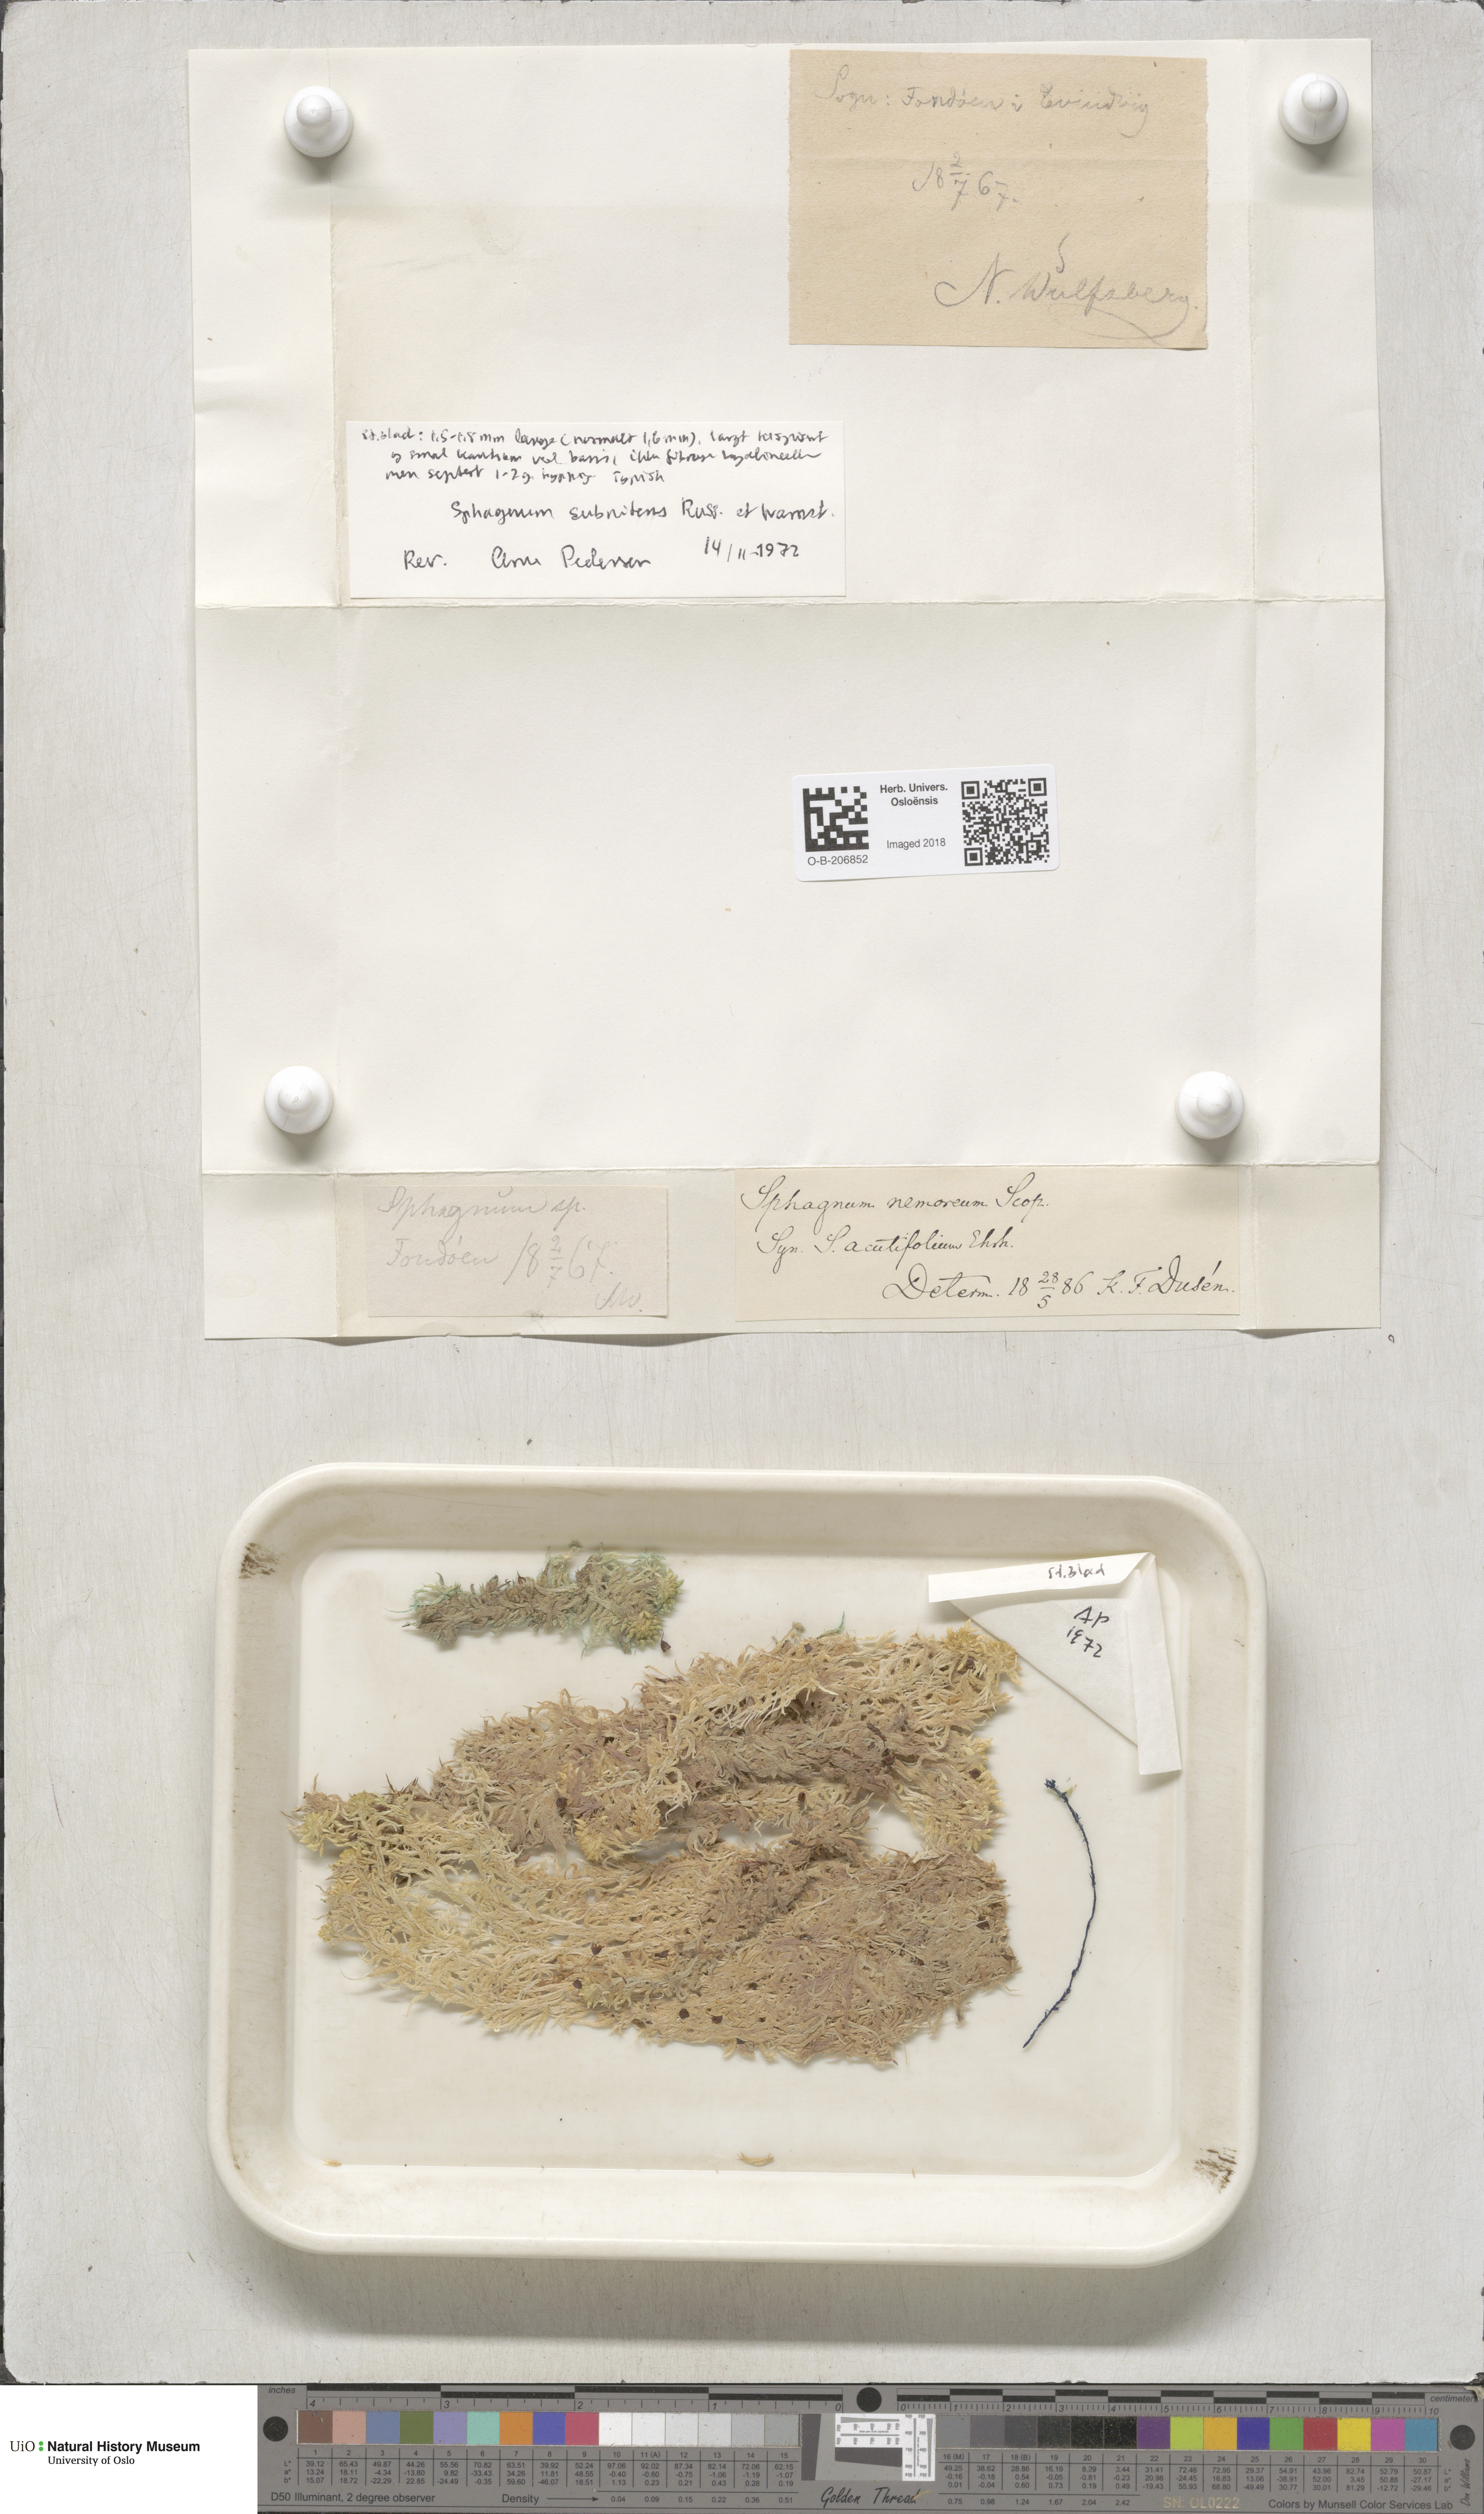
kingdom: Plantae
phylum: Bryophyta
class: Sphagnopsida
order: Sphagnales
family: Sphagnaceae
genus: Sphagnum
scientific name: Sphagnum subnitens
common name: Lustrous bog-moss
